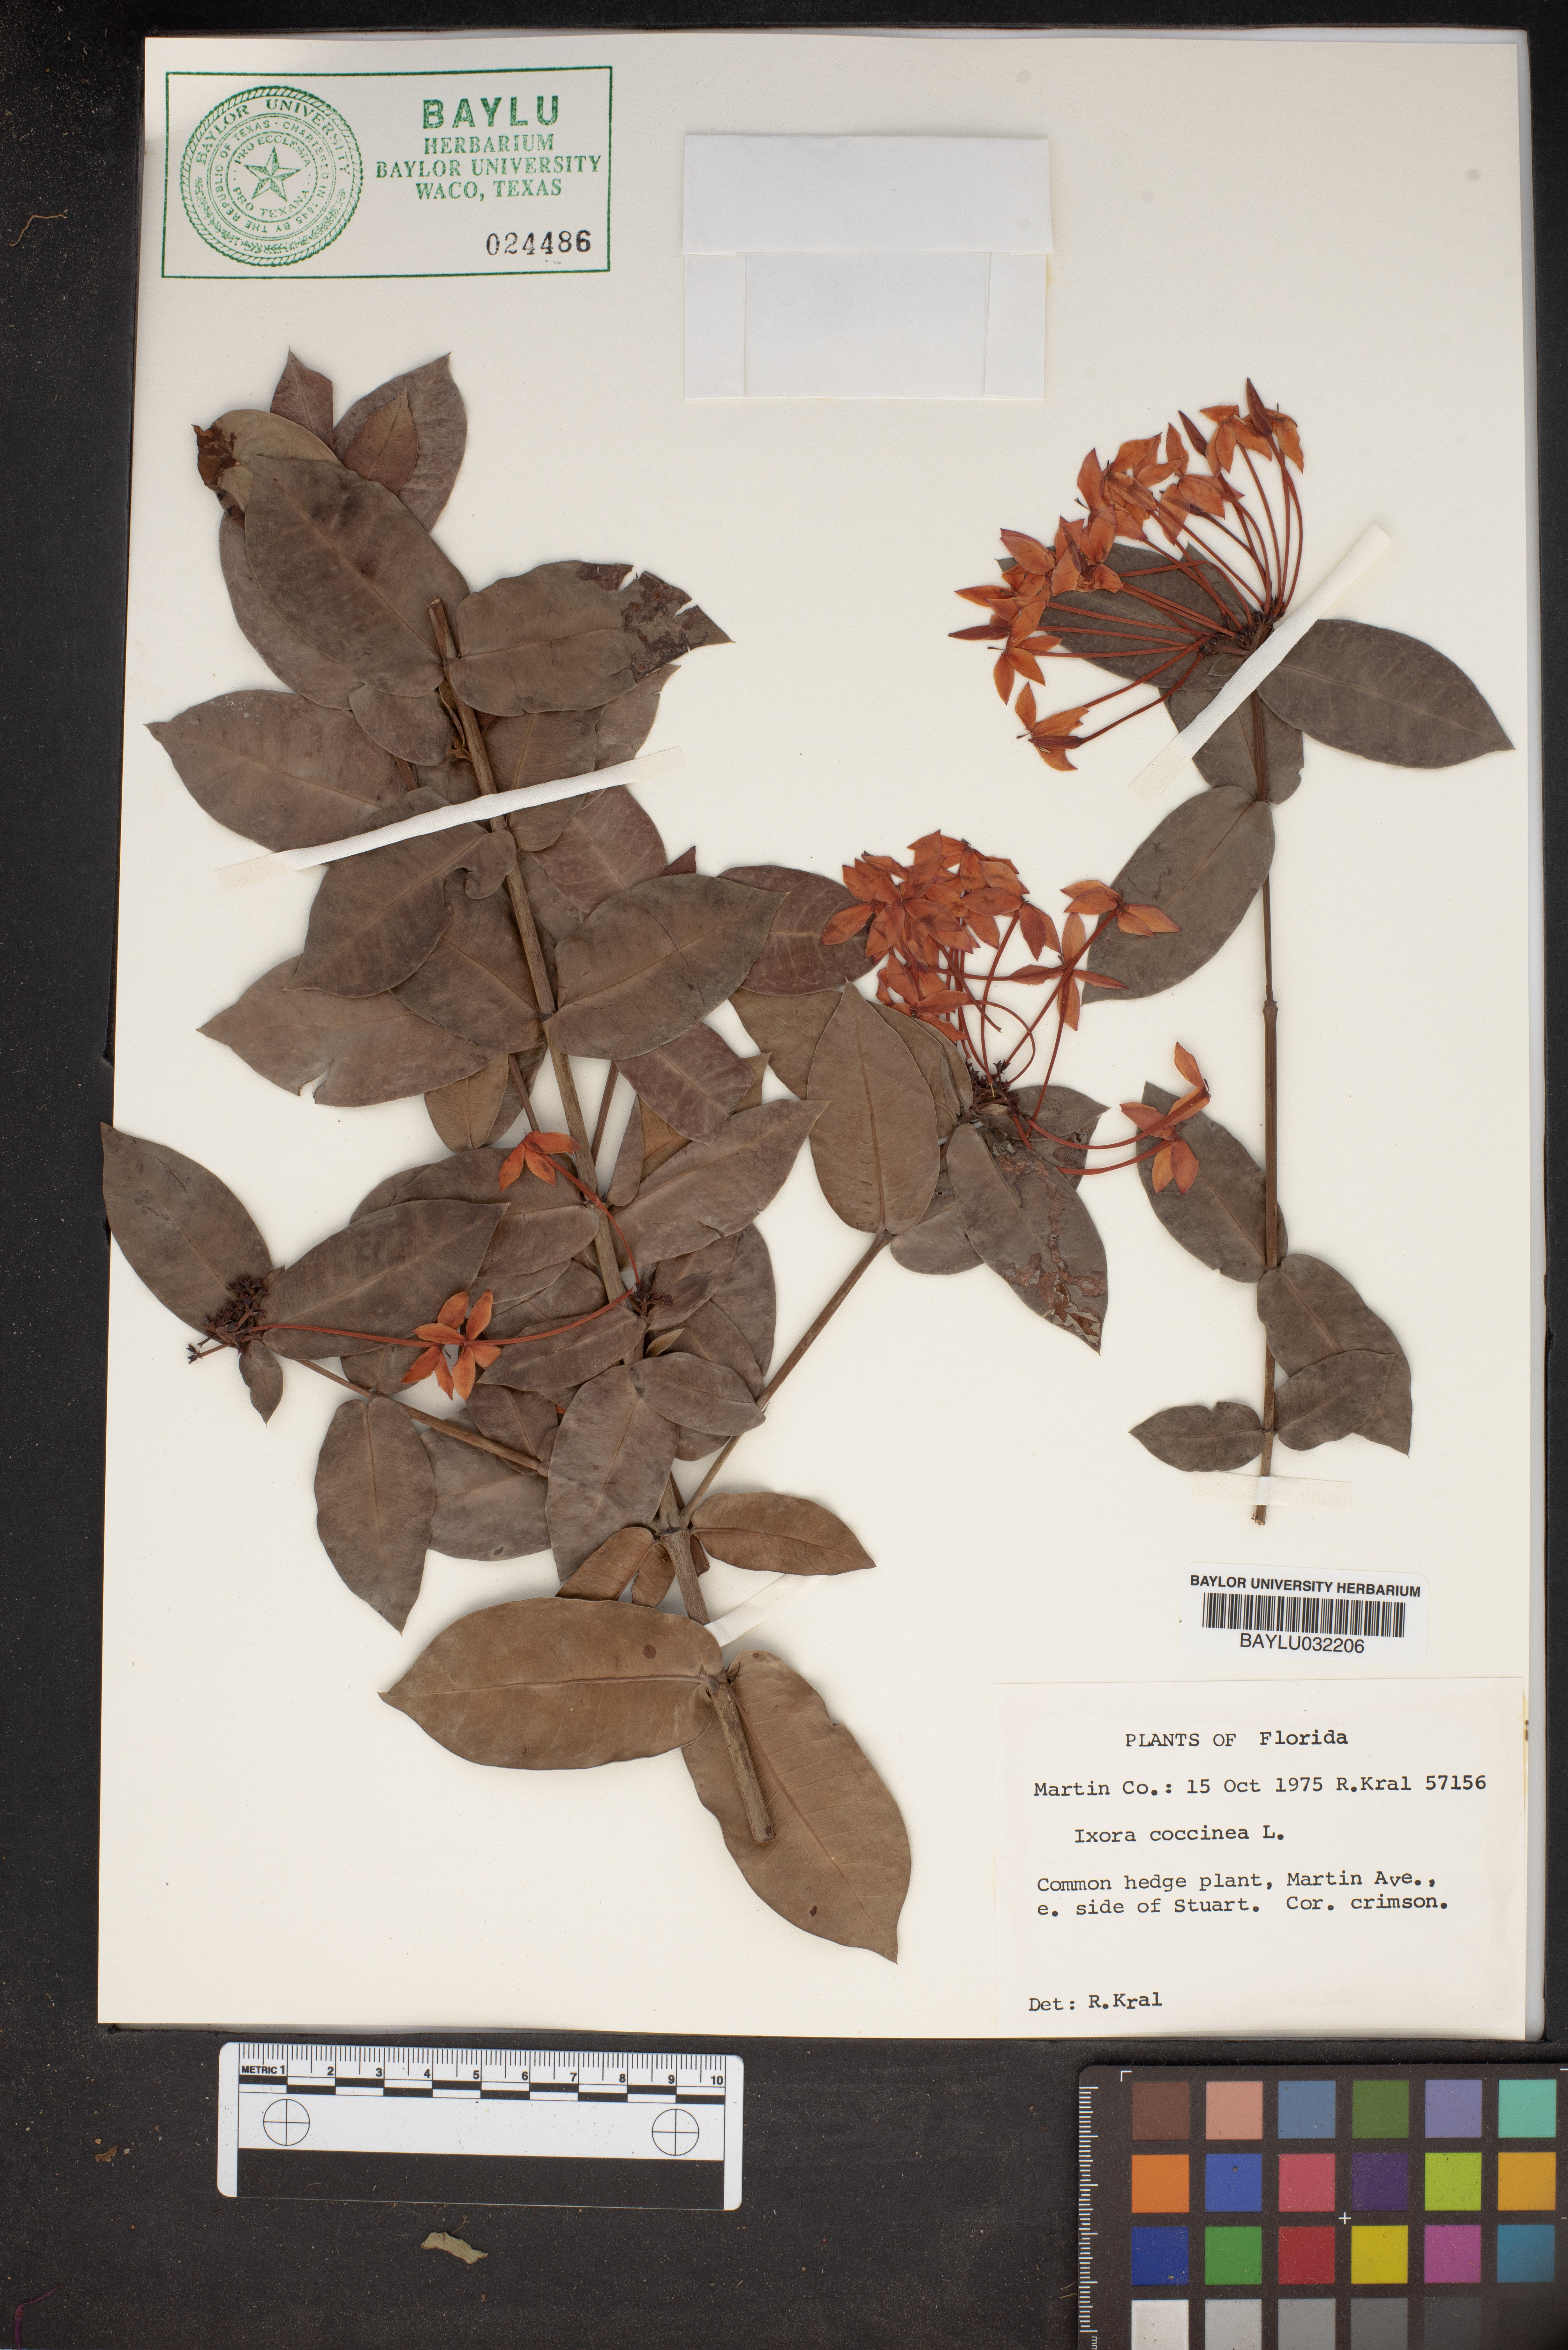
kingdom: Plantae
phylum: Tracheophyta
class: Magnoliopsida
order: Gentianales
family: Rubiaceae
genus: Ixora
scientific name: Ixora coccinea
